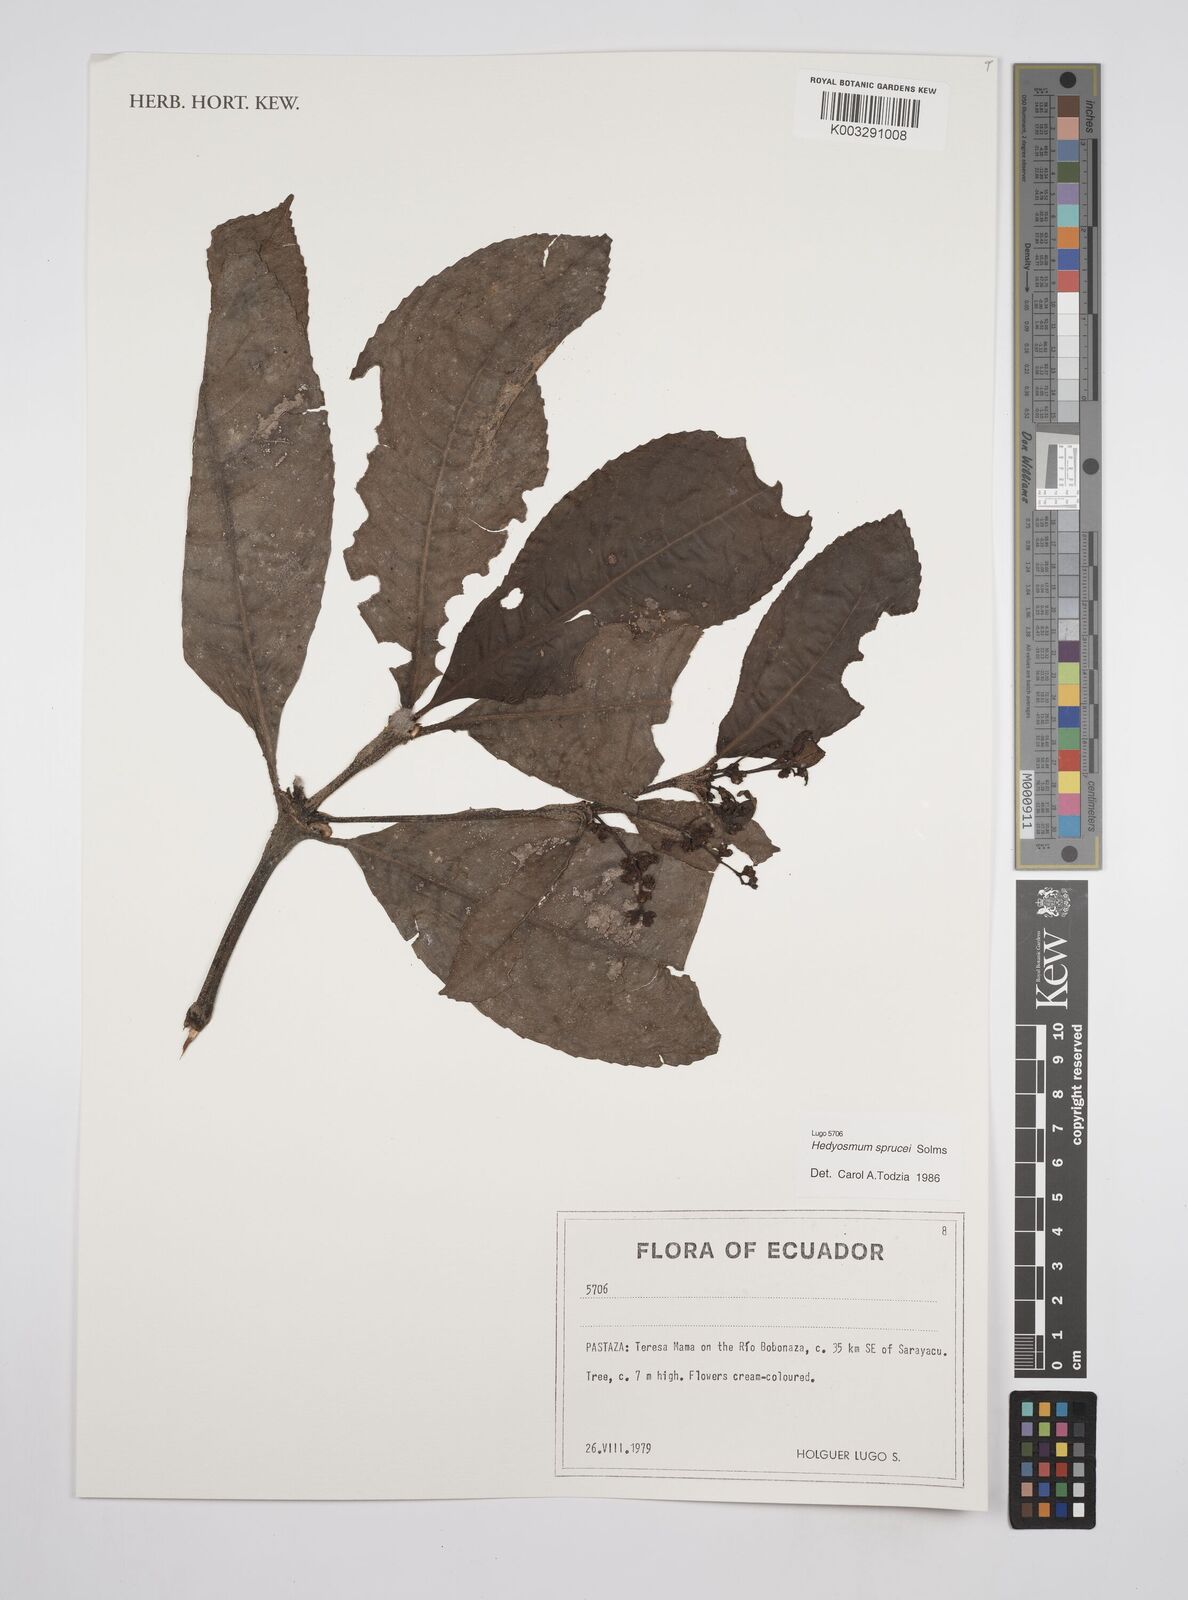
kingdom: Plantae
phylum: Tracheophyta
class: Magnoliopsida
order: Chloranthales
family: Chloranthaceae
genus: Hedyosmum
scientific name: Hedyosmum sprucei
